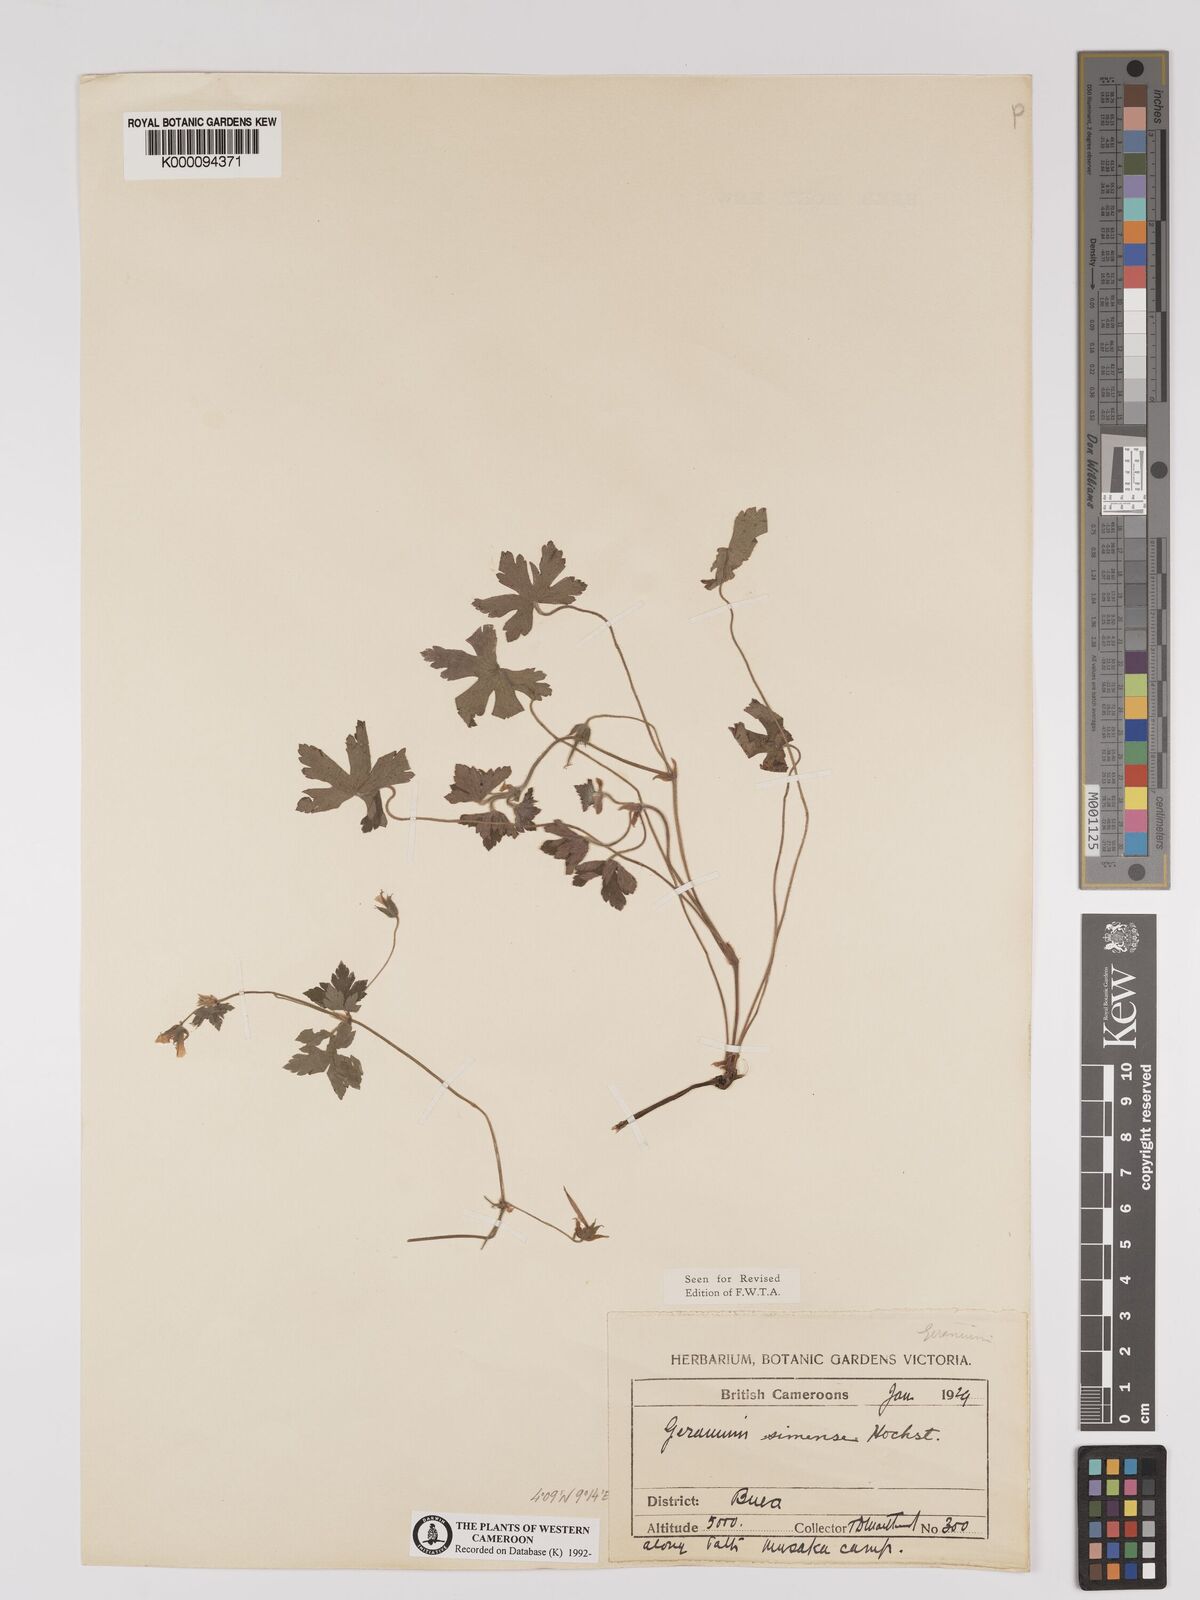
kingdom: Plantae
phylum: Tracheophyta
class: Magnoliopsida
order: Geraniales
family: Geraniaceae
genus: Geranium
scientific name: Geranium arabicum
